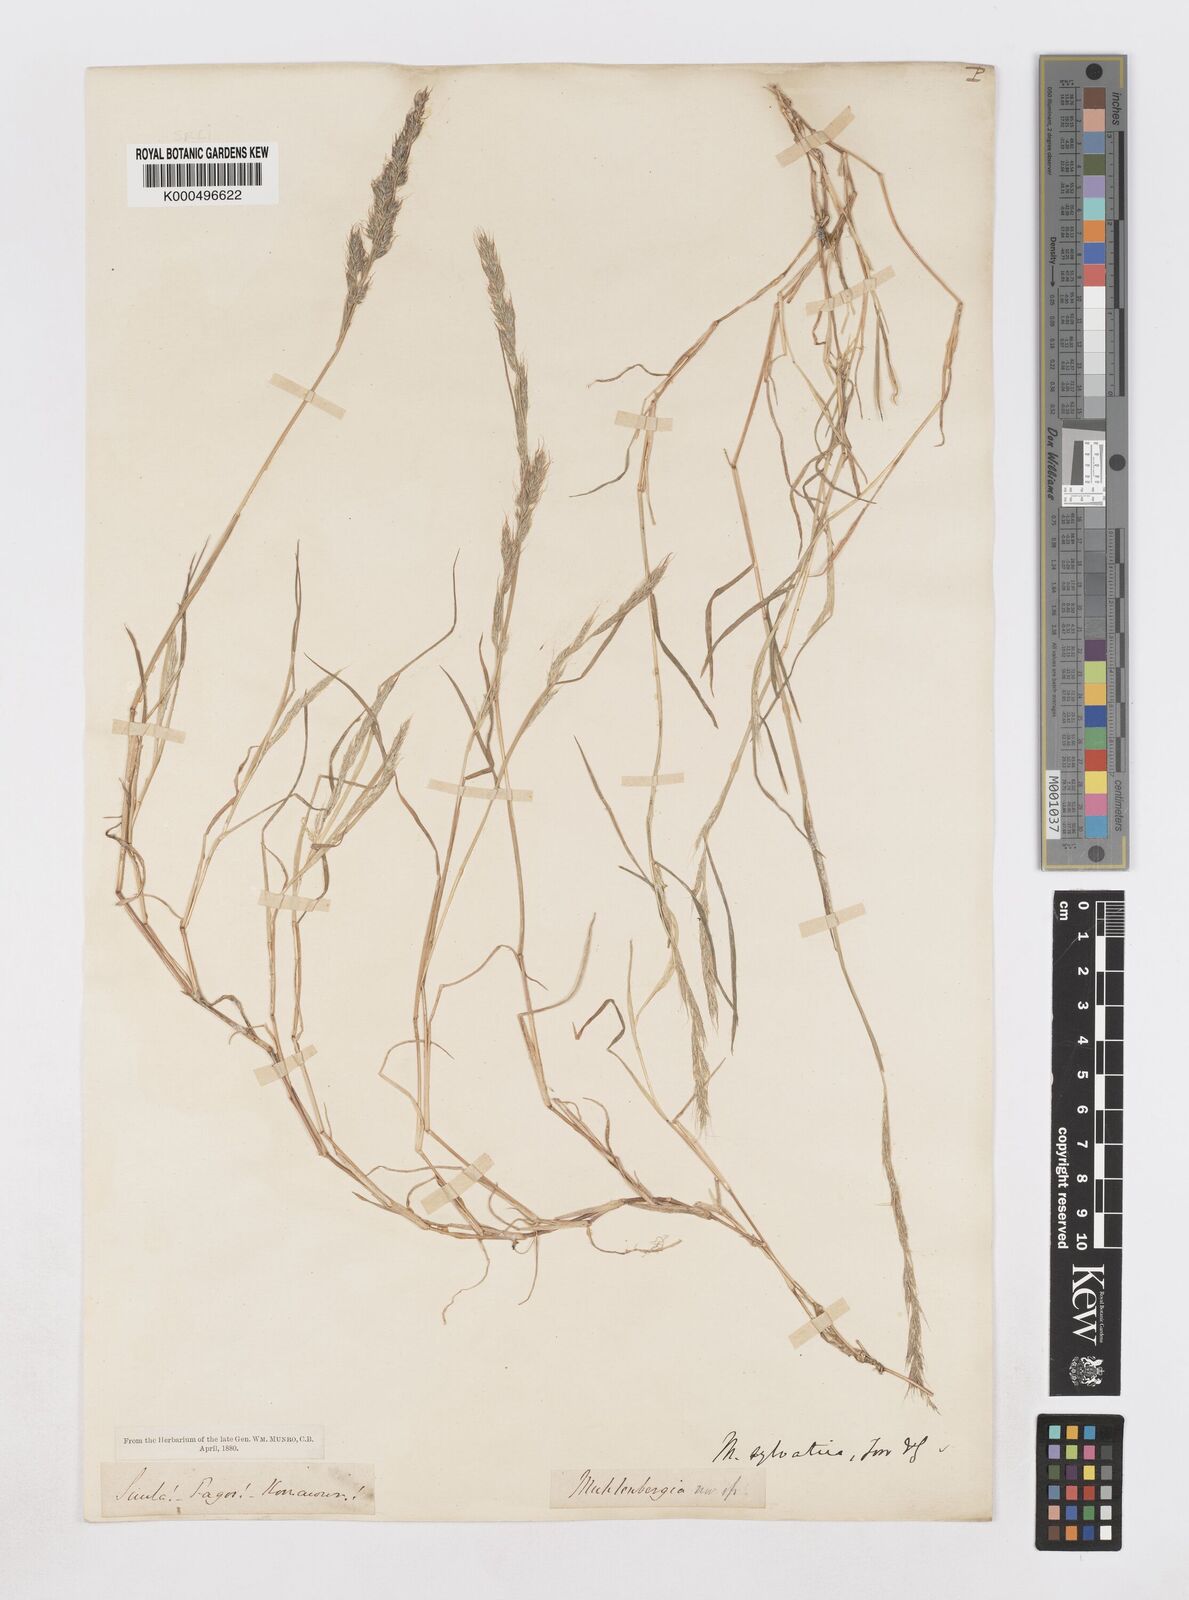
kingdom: Plantae
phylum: Tracheophyta
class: Liliopsida
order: Poales
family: Poaceae
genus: Muhlenbergia
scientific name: Muhlenbergia duthieana
